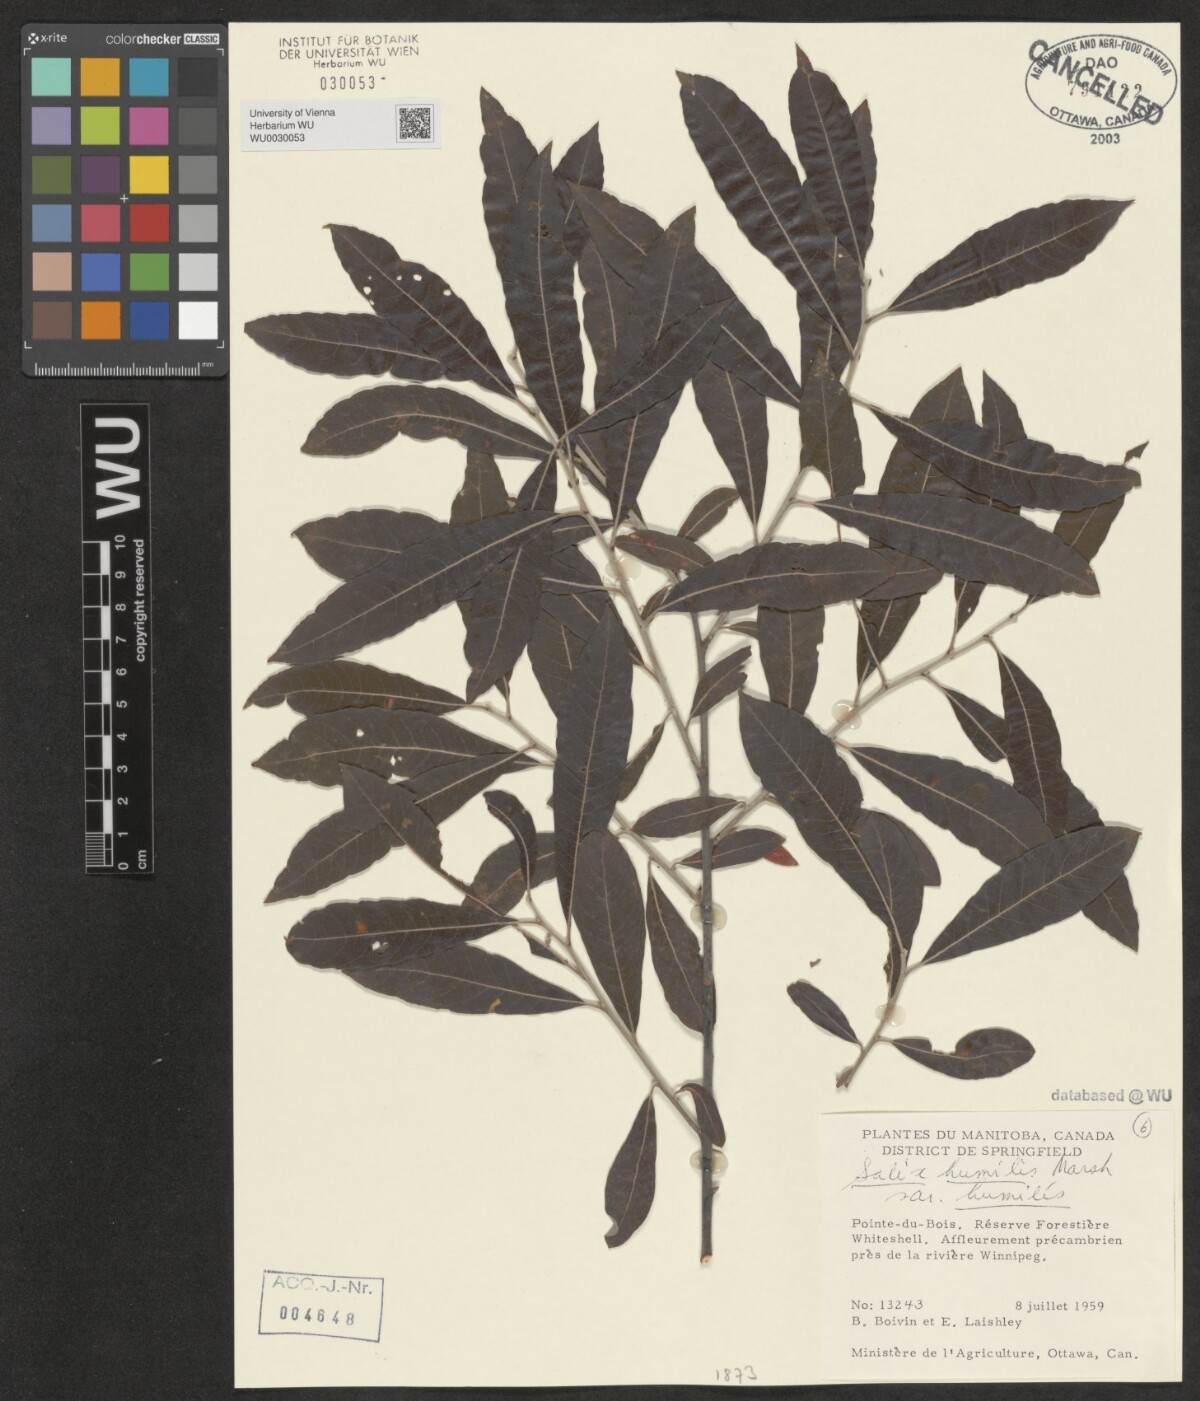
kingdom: Plantae
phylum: Tracheophyta
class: Magnoliopsida
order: Malpighiales
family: Salicaceae
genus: Salix
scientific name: Salix humilis
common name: Prairie willow
